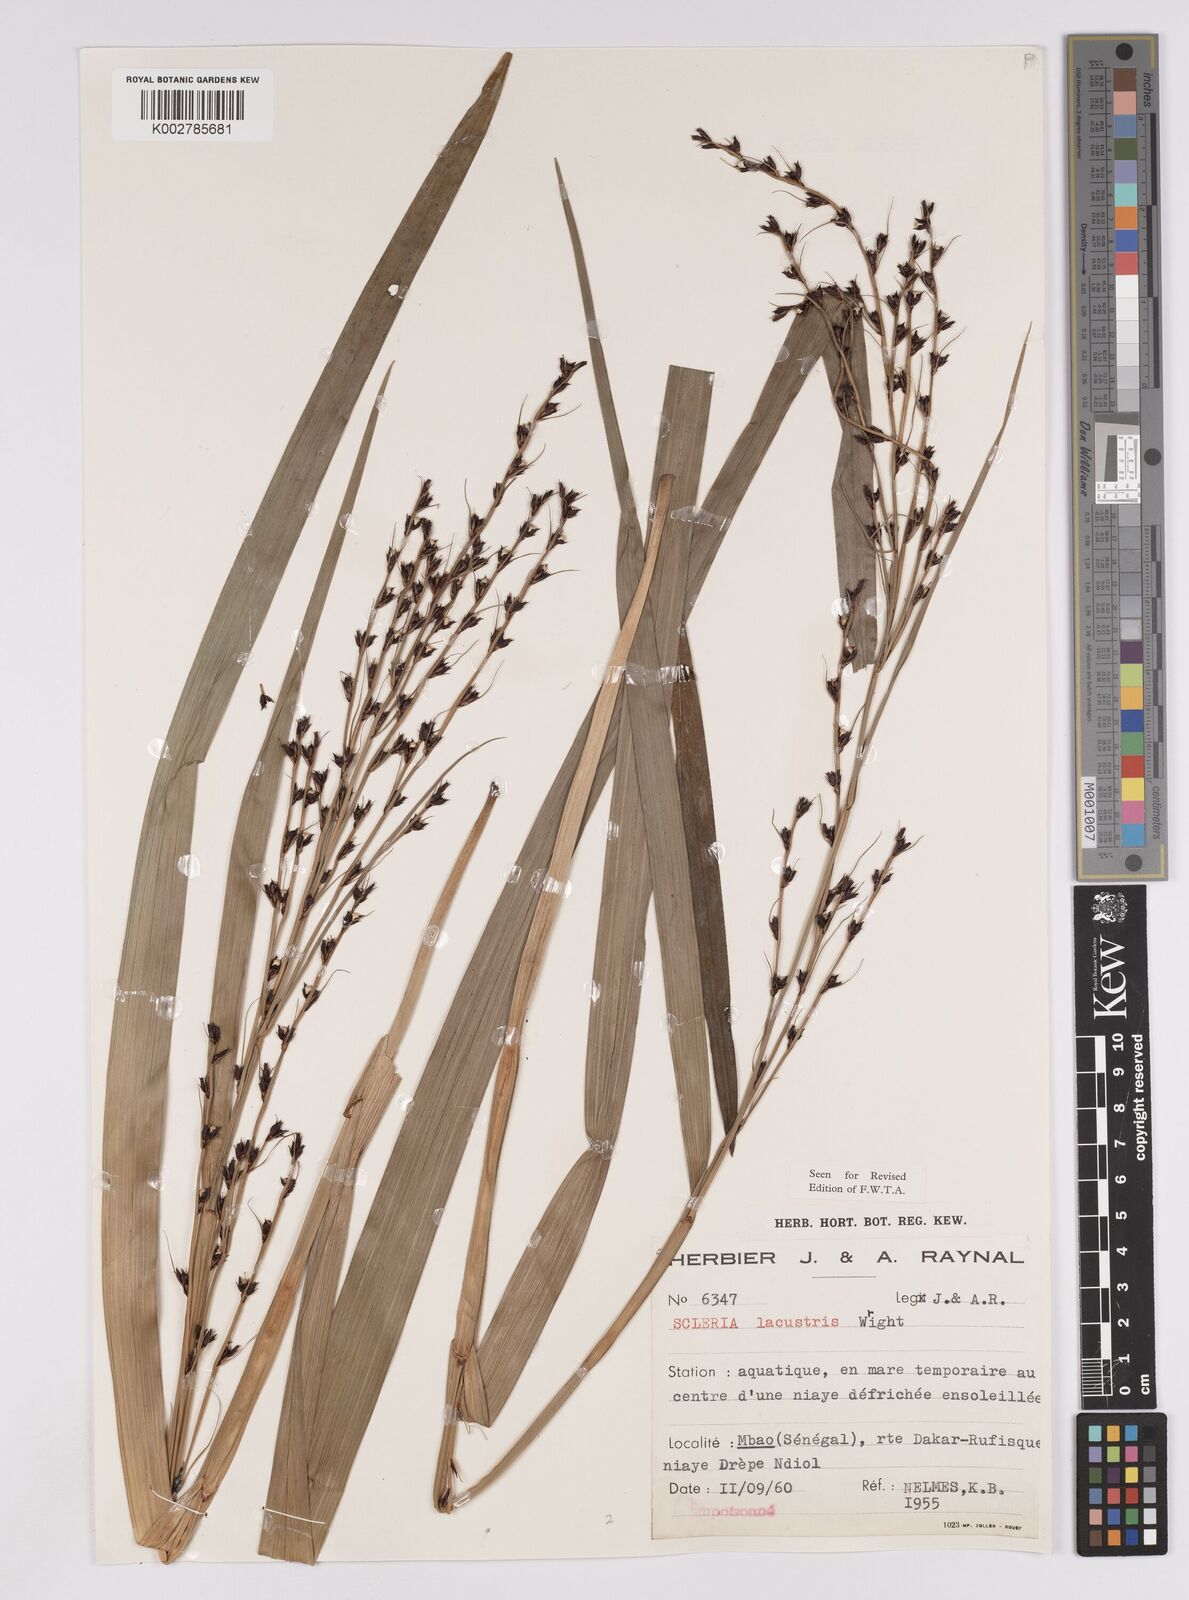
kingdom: Plantae
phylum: Tracheophyta
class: Liliopsida
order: Poales
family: Cyperaceae
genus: Scleria
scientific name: Scleria lacustris
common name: Lakeshore nutrush
